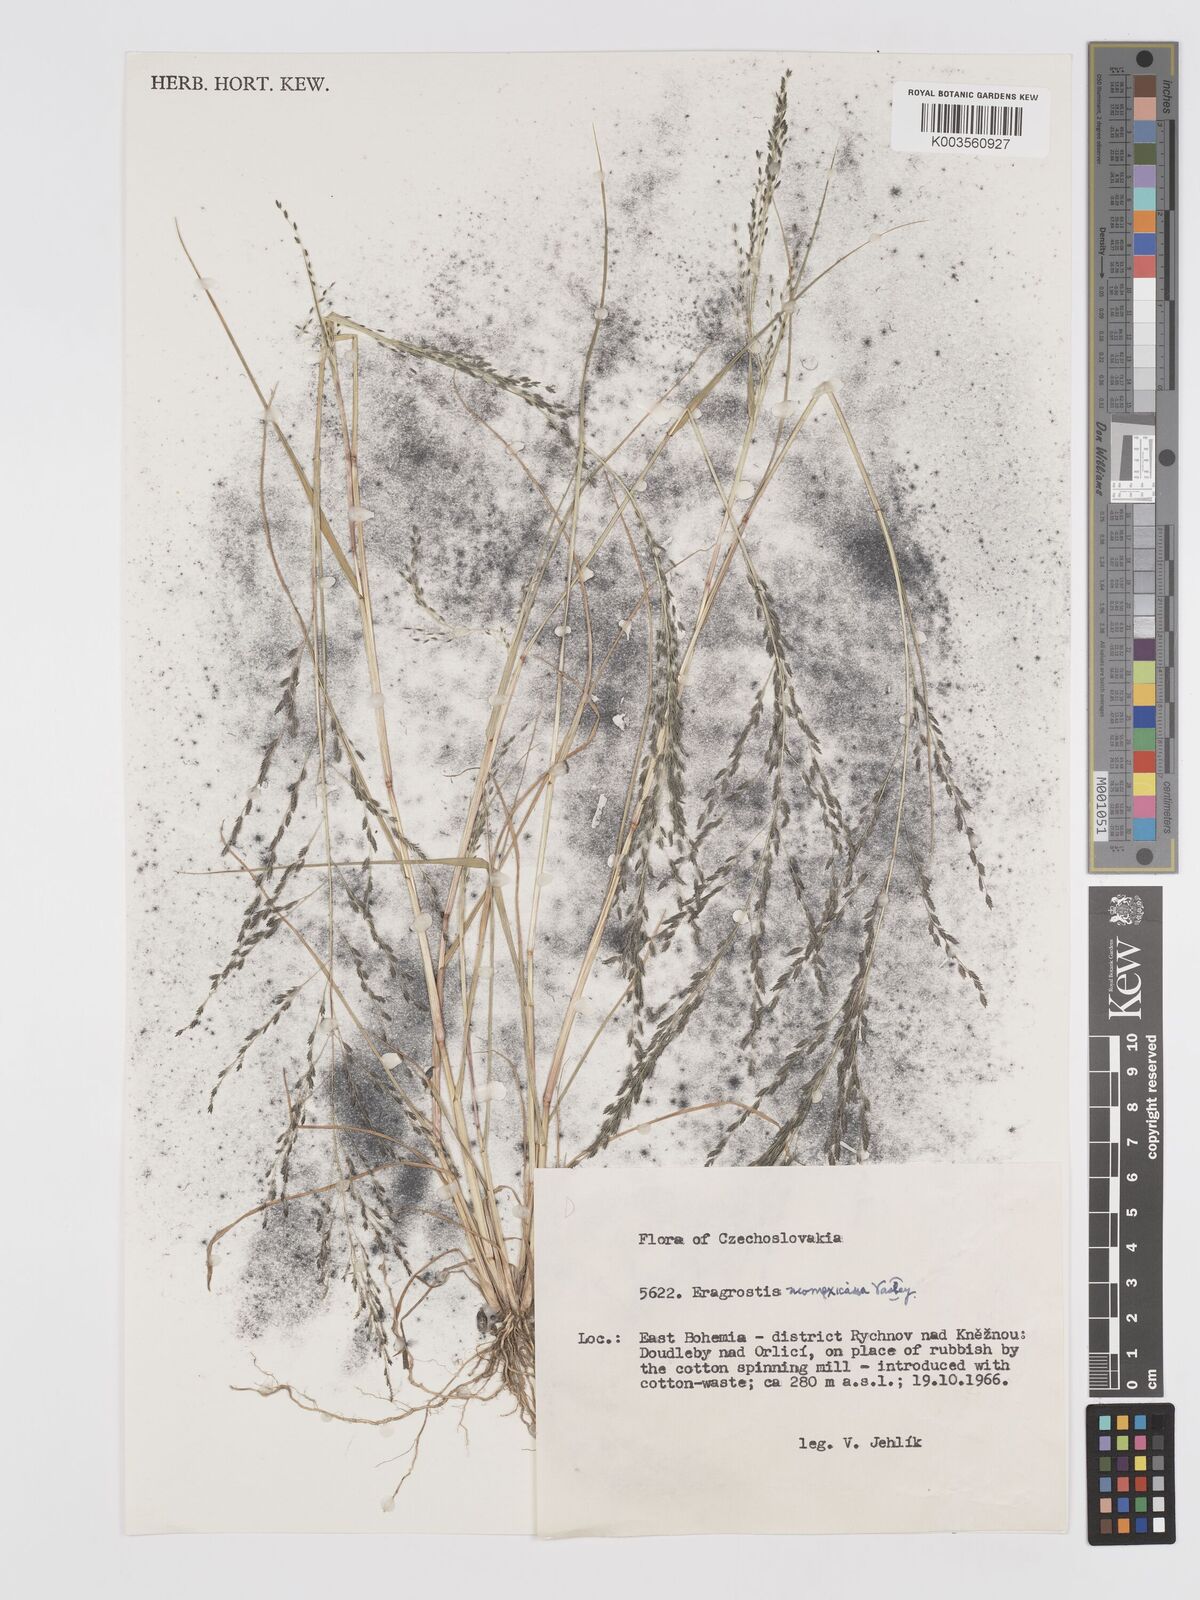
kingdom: Plantae
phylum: Tracheophyta
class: Liliopsida
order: Poales
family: Poaceae
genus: Eragrostis
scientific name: Eragrostis mexicana
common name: Mexican love grass
